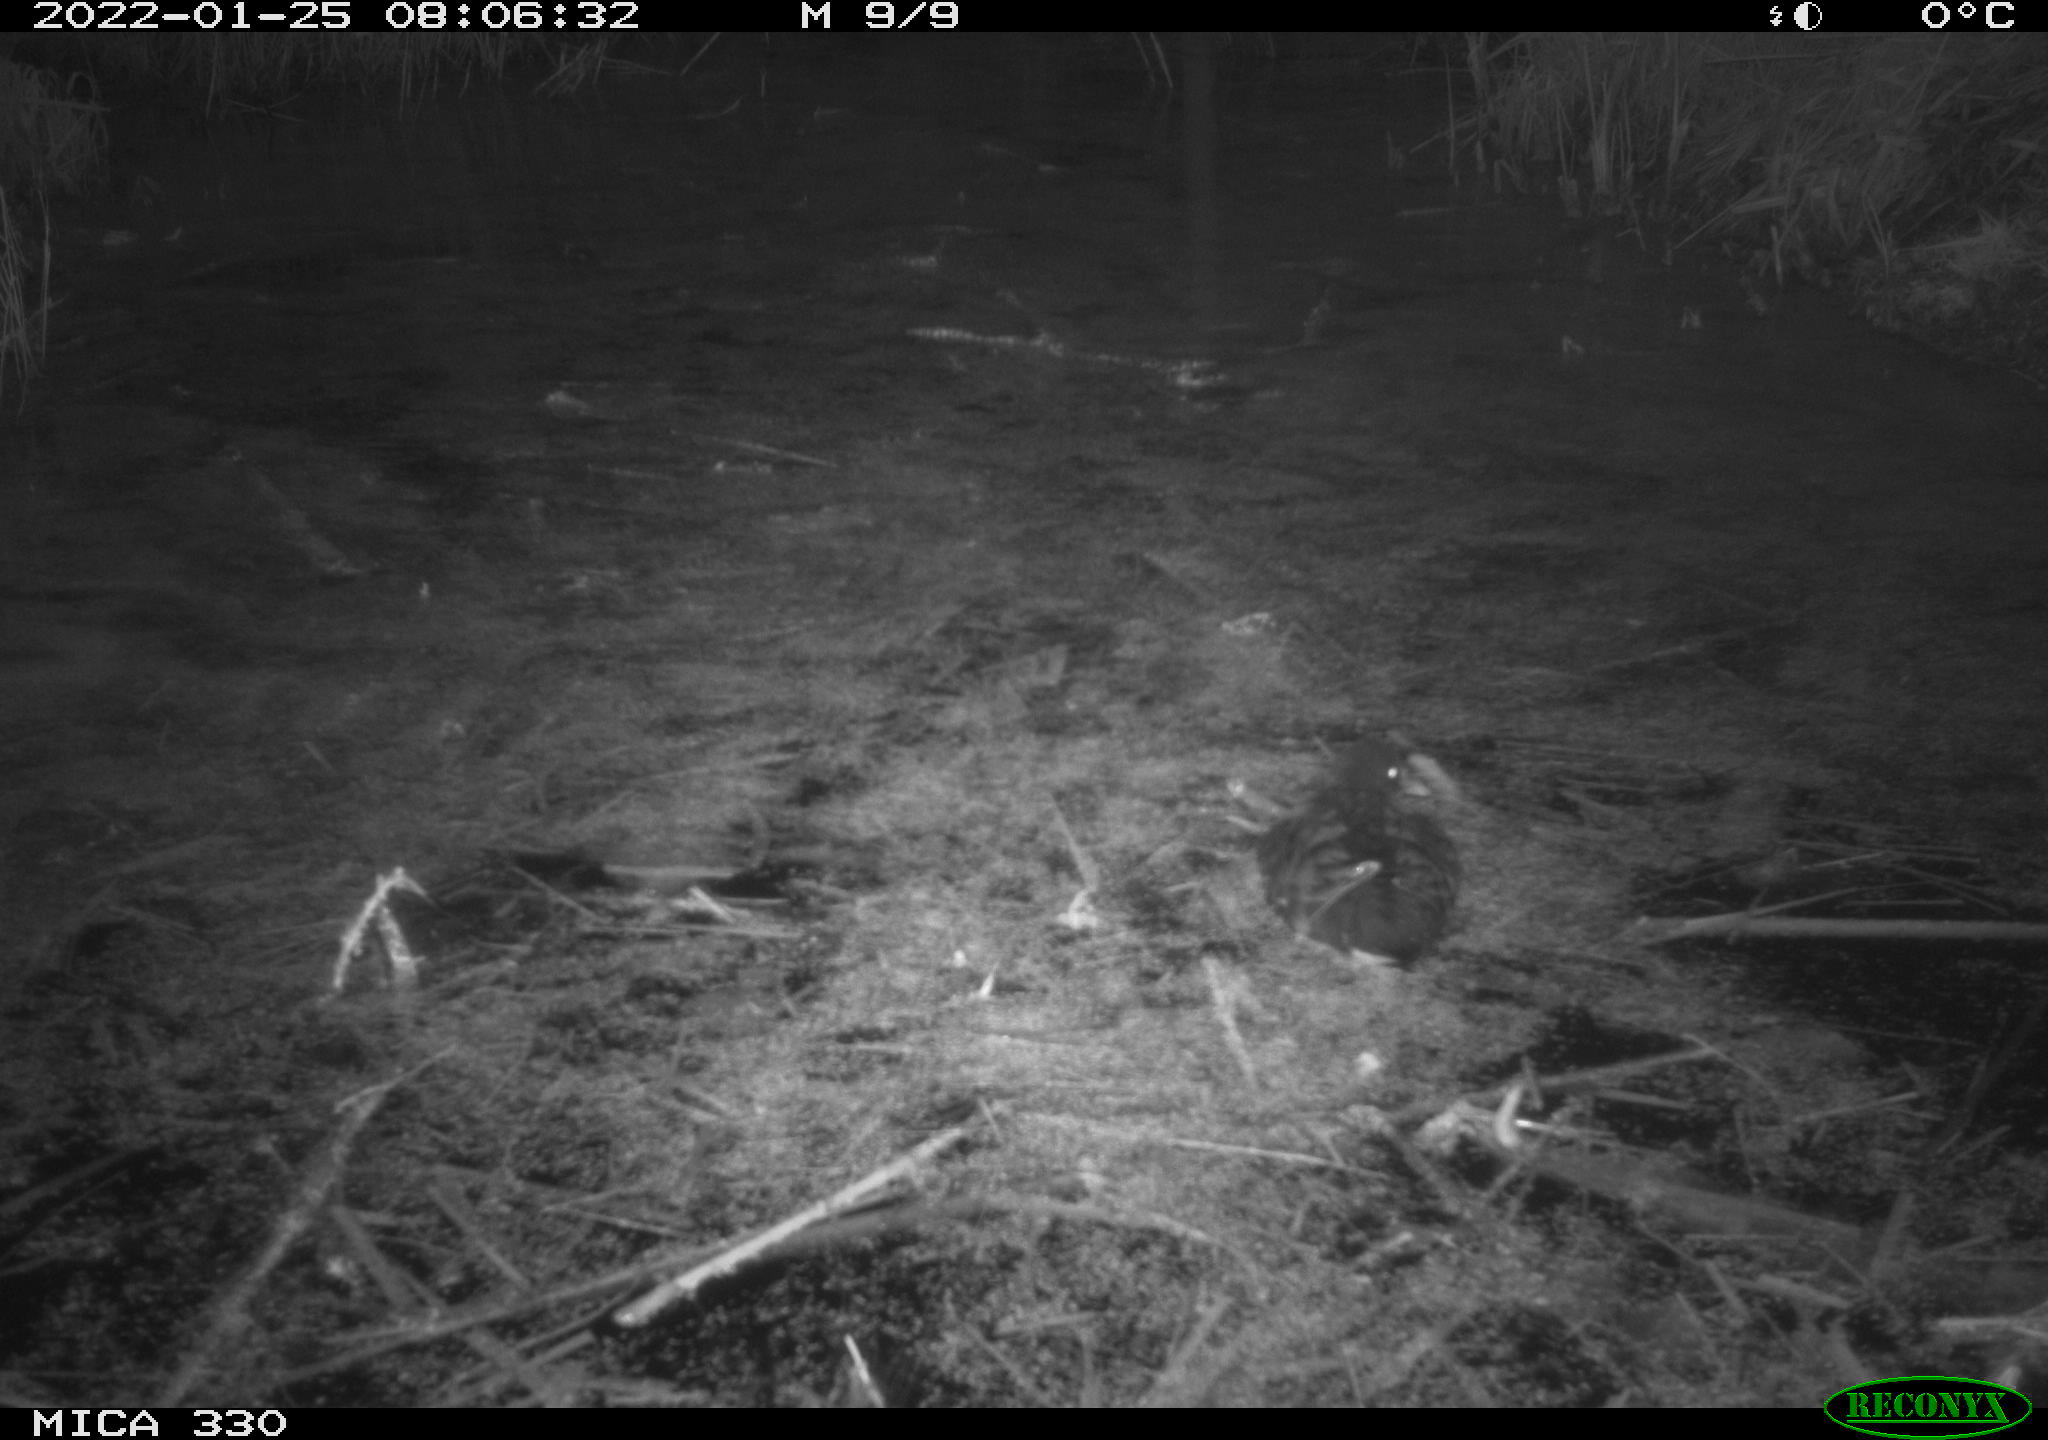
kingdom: Animalia
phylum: Chordata
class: Aves
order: Gruiformes
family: Rallidae
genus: Gallinula
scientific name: Gallinula chloropus
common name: Common moorhen
